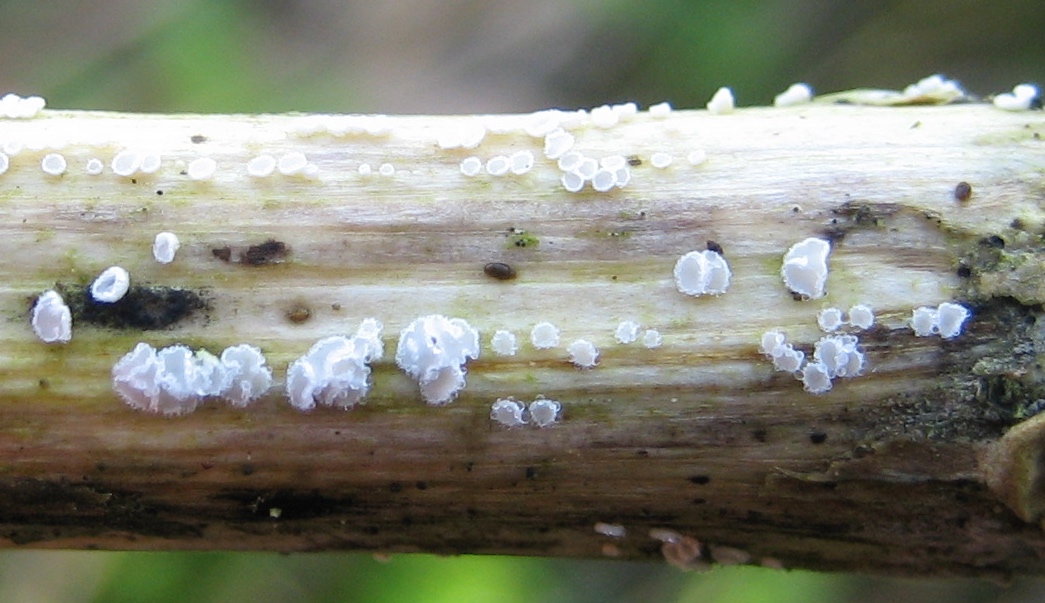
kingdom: Fungi
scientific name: Fungi
